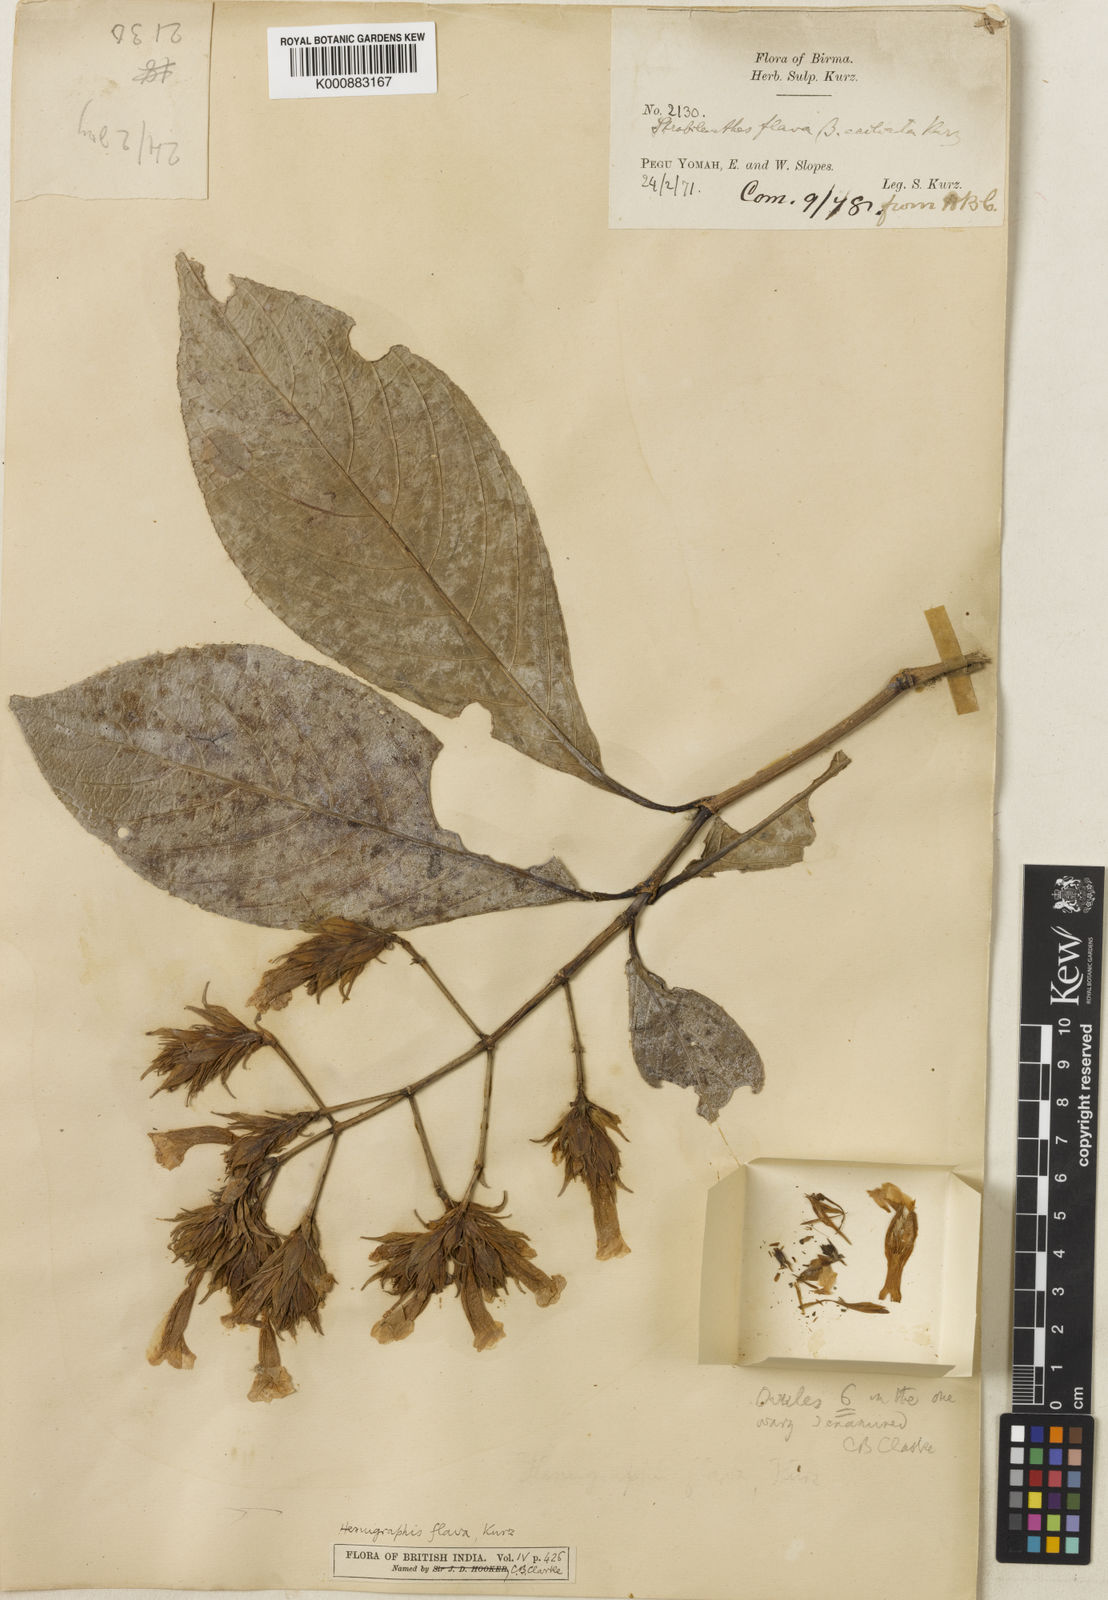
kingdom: Plantae
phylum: Tracheophyta
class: Magnoliopsida
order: Lamiales
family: Acanthaceae
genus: Strobilanthes
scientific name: Strobilanthes flava
